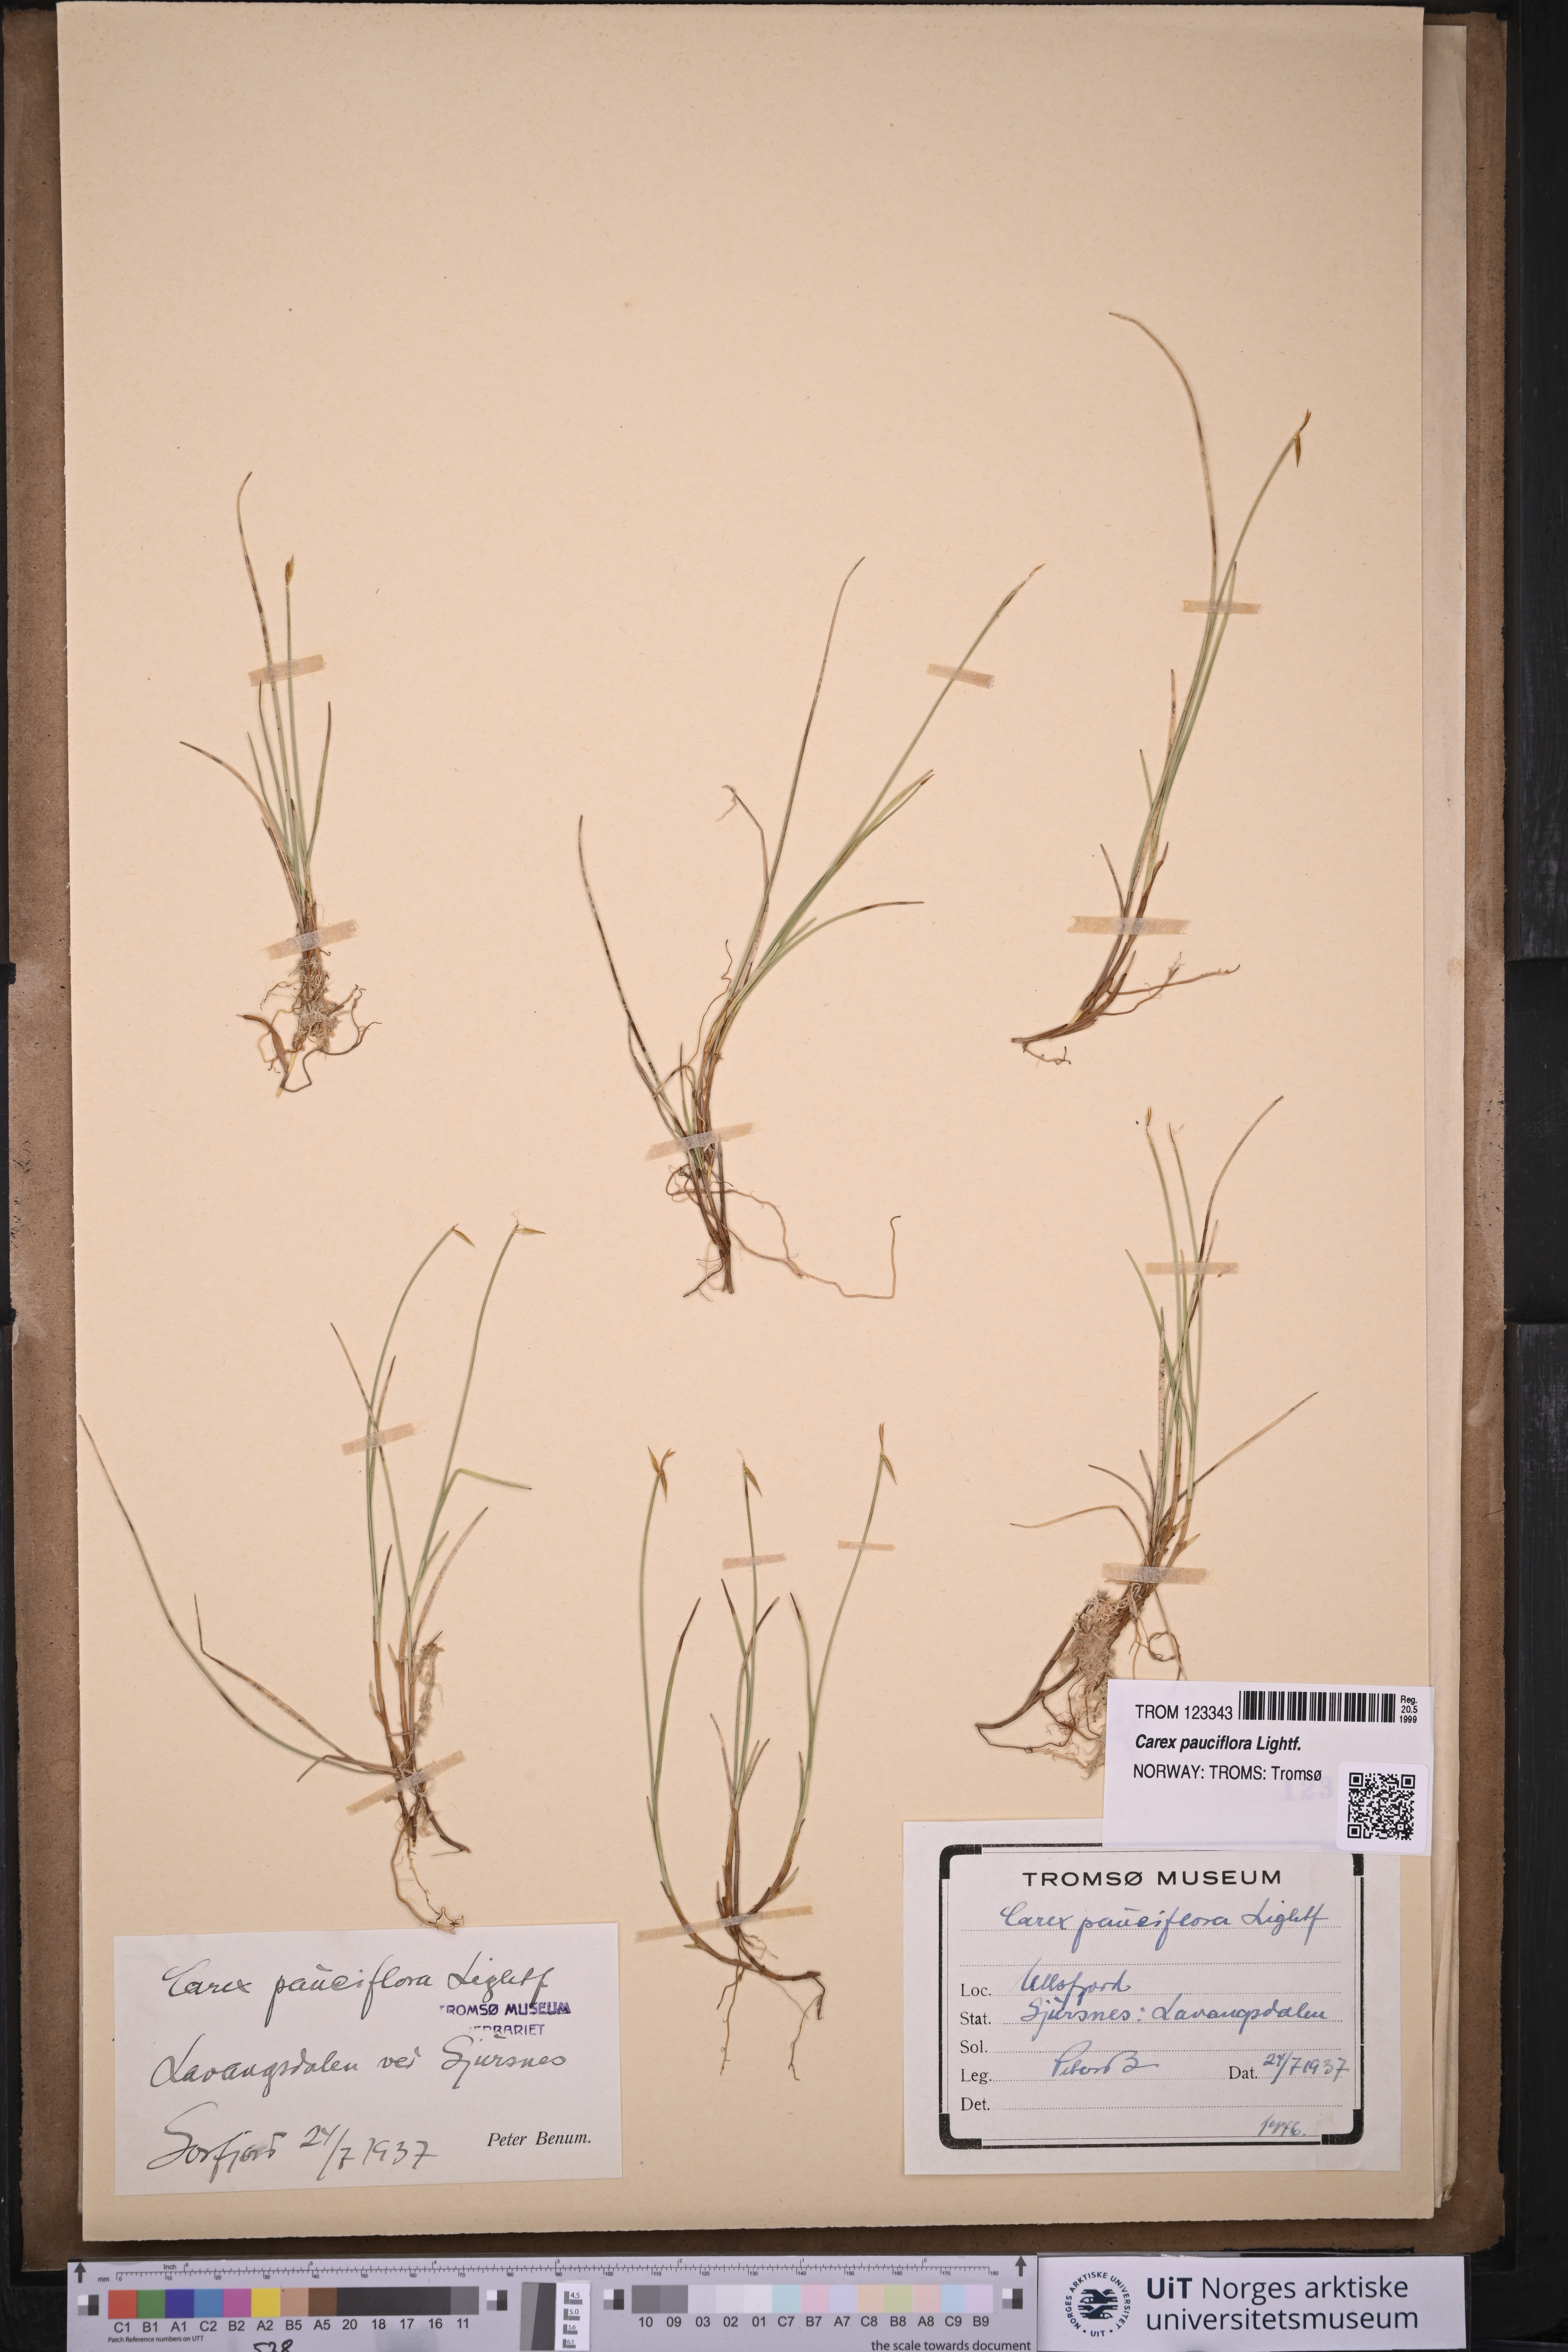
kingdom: Plantae
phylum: Tracheophyta
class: Liliopsida
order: Poales
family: Cyperaceae
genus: Carex
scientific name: Carex pauciflora
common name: Few-flowered sedge
